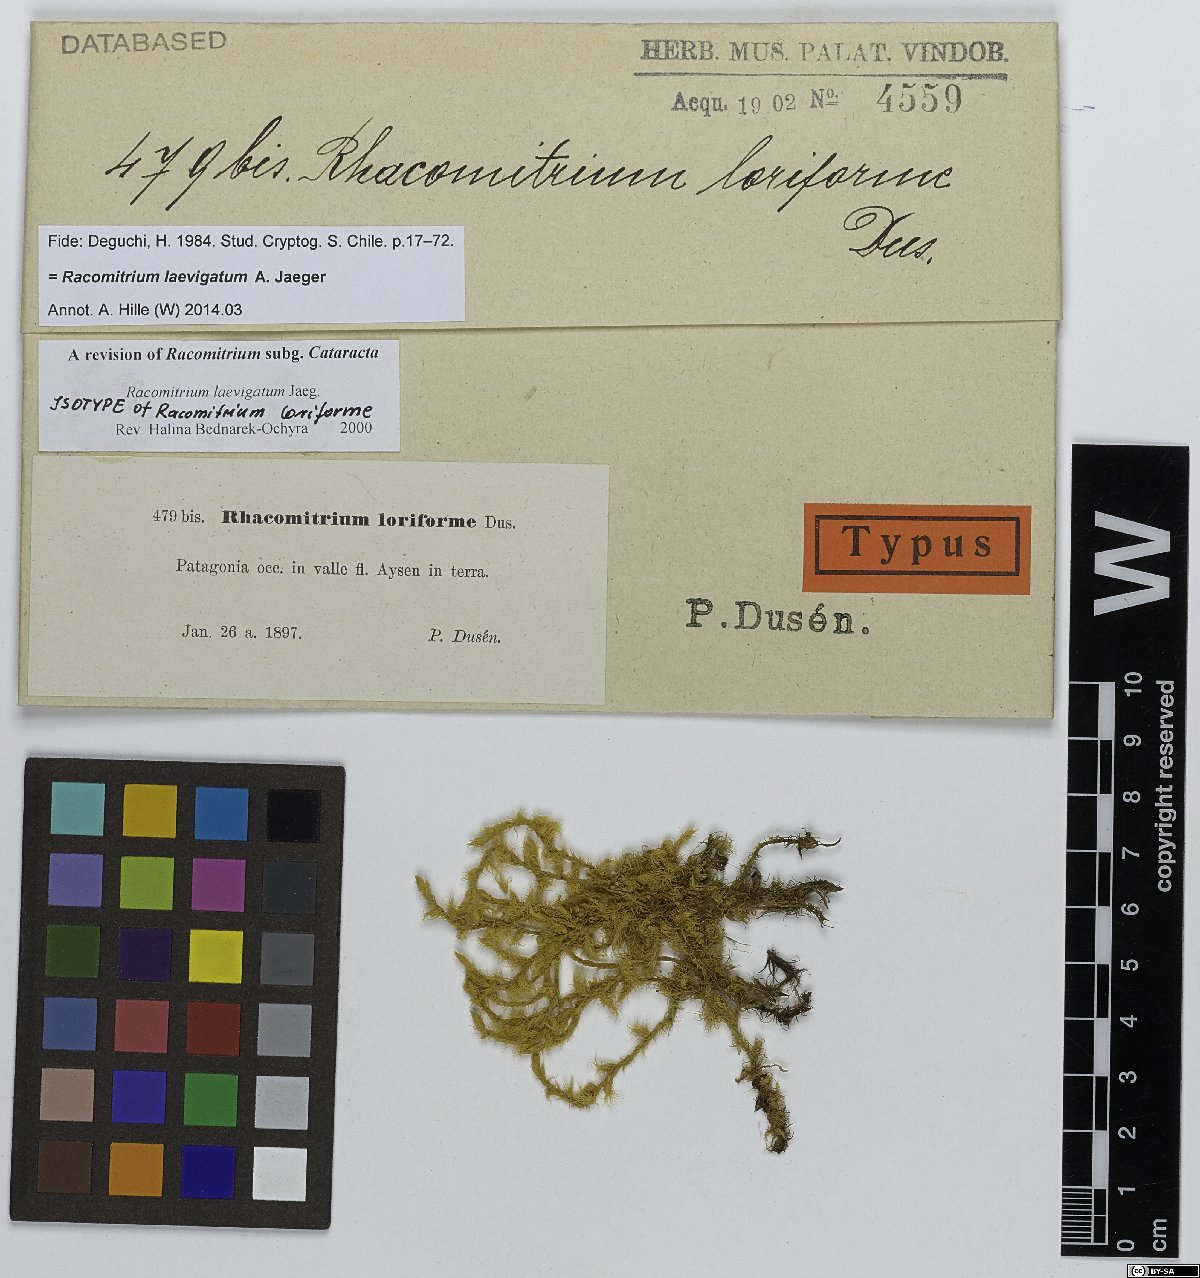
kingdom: Plantae
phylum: Bryophyta
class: Bryopsida
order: Grimmiales
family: Grimmiaceae
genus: Dilutineuron
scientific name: Dilutineuron laevigatum
